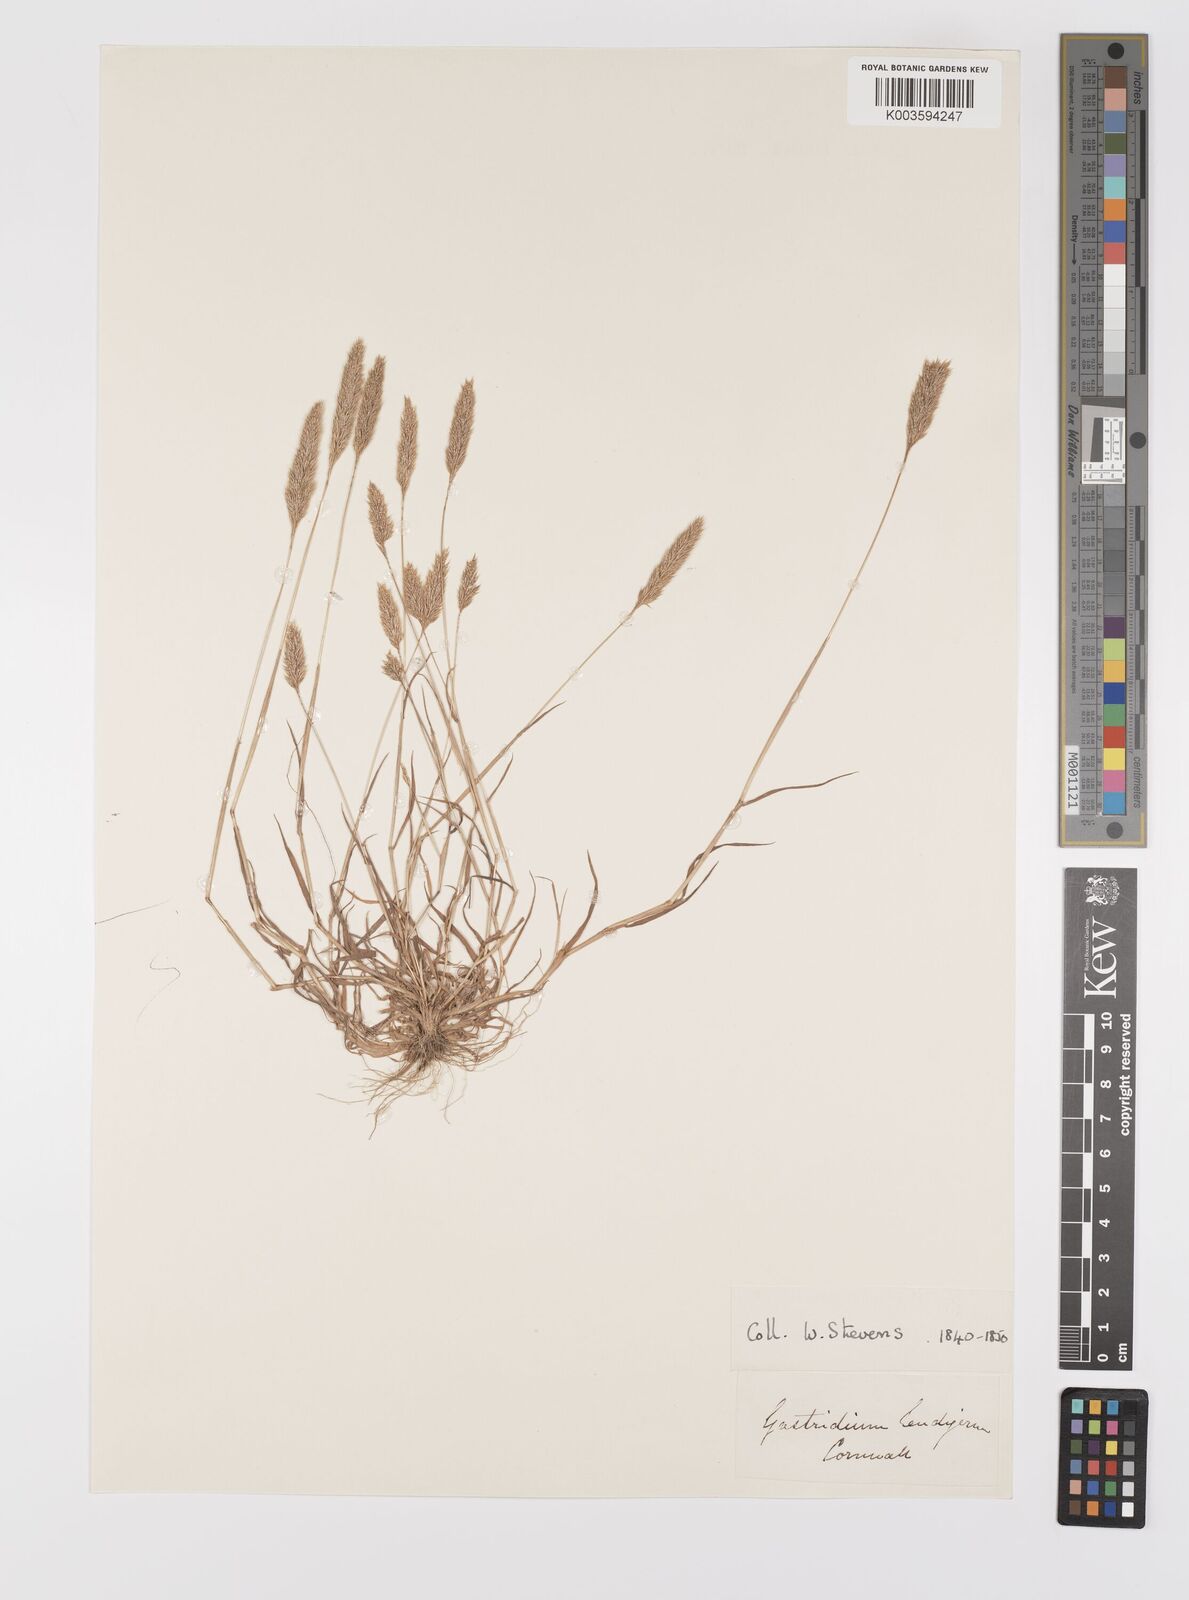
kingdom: Plantae
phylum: Tracheophyta
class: Liliopsida
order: Poales
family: Poaceae
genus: Gastridium
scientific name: Gastridium ventricosum
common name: Nit-grass
